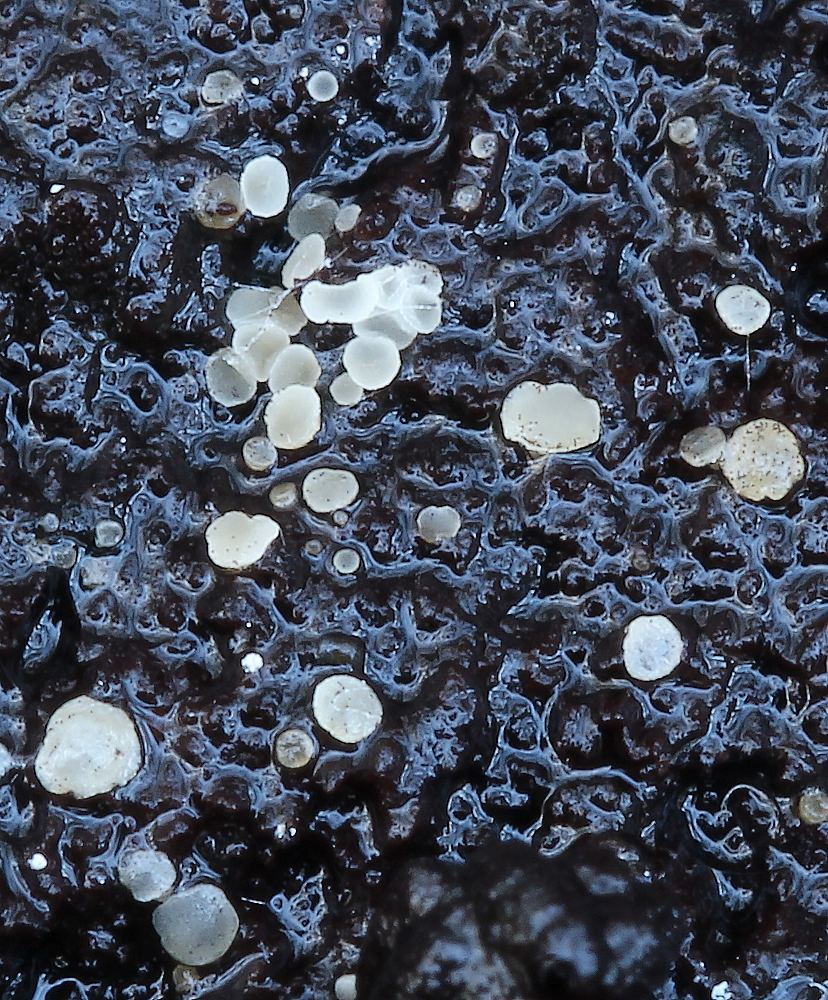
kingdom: Fungi
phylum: Ascomycota
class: Leotiomycetes
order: Helotiales
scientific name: Helotiales
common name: stilkskiveordenen
